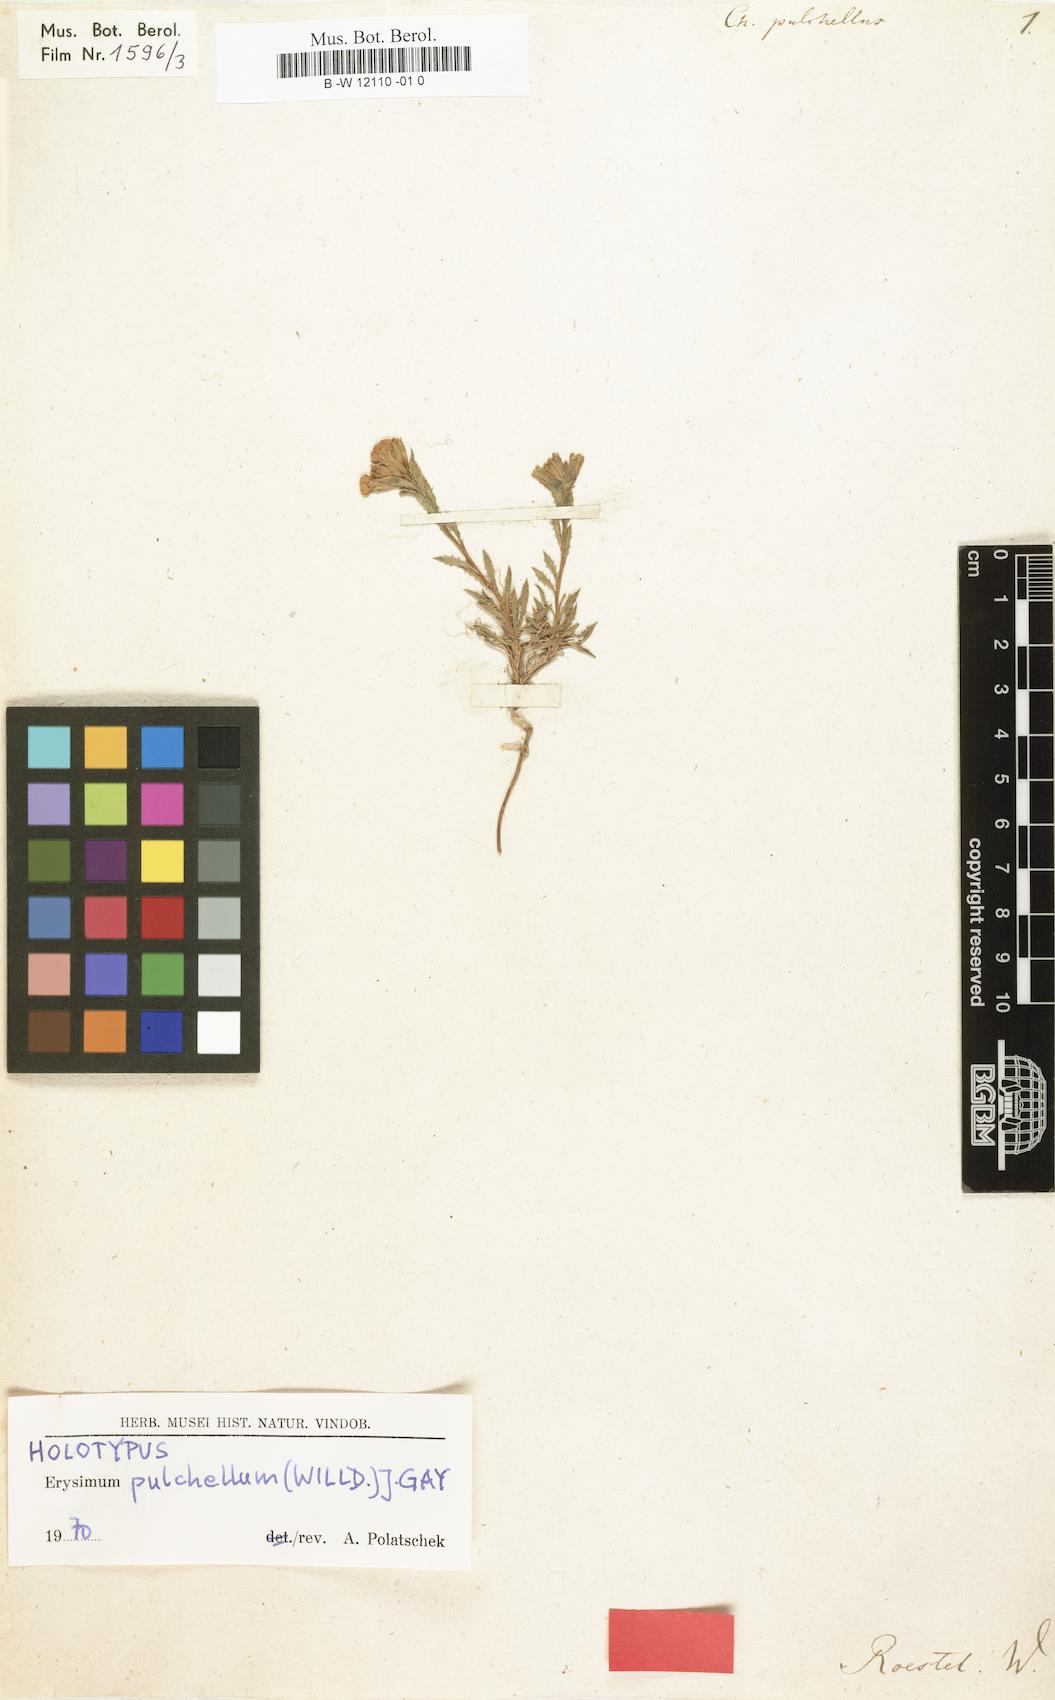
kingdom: Plantae
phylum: Tracheophyta
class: Magnoliopsida
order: Brassicales
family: Brassicaceae
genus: Erysimum
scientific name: Erysimum pulchellum
